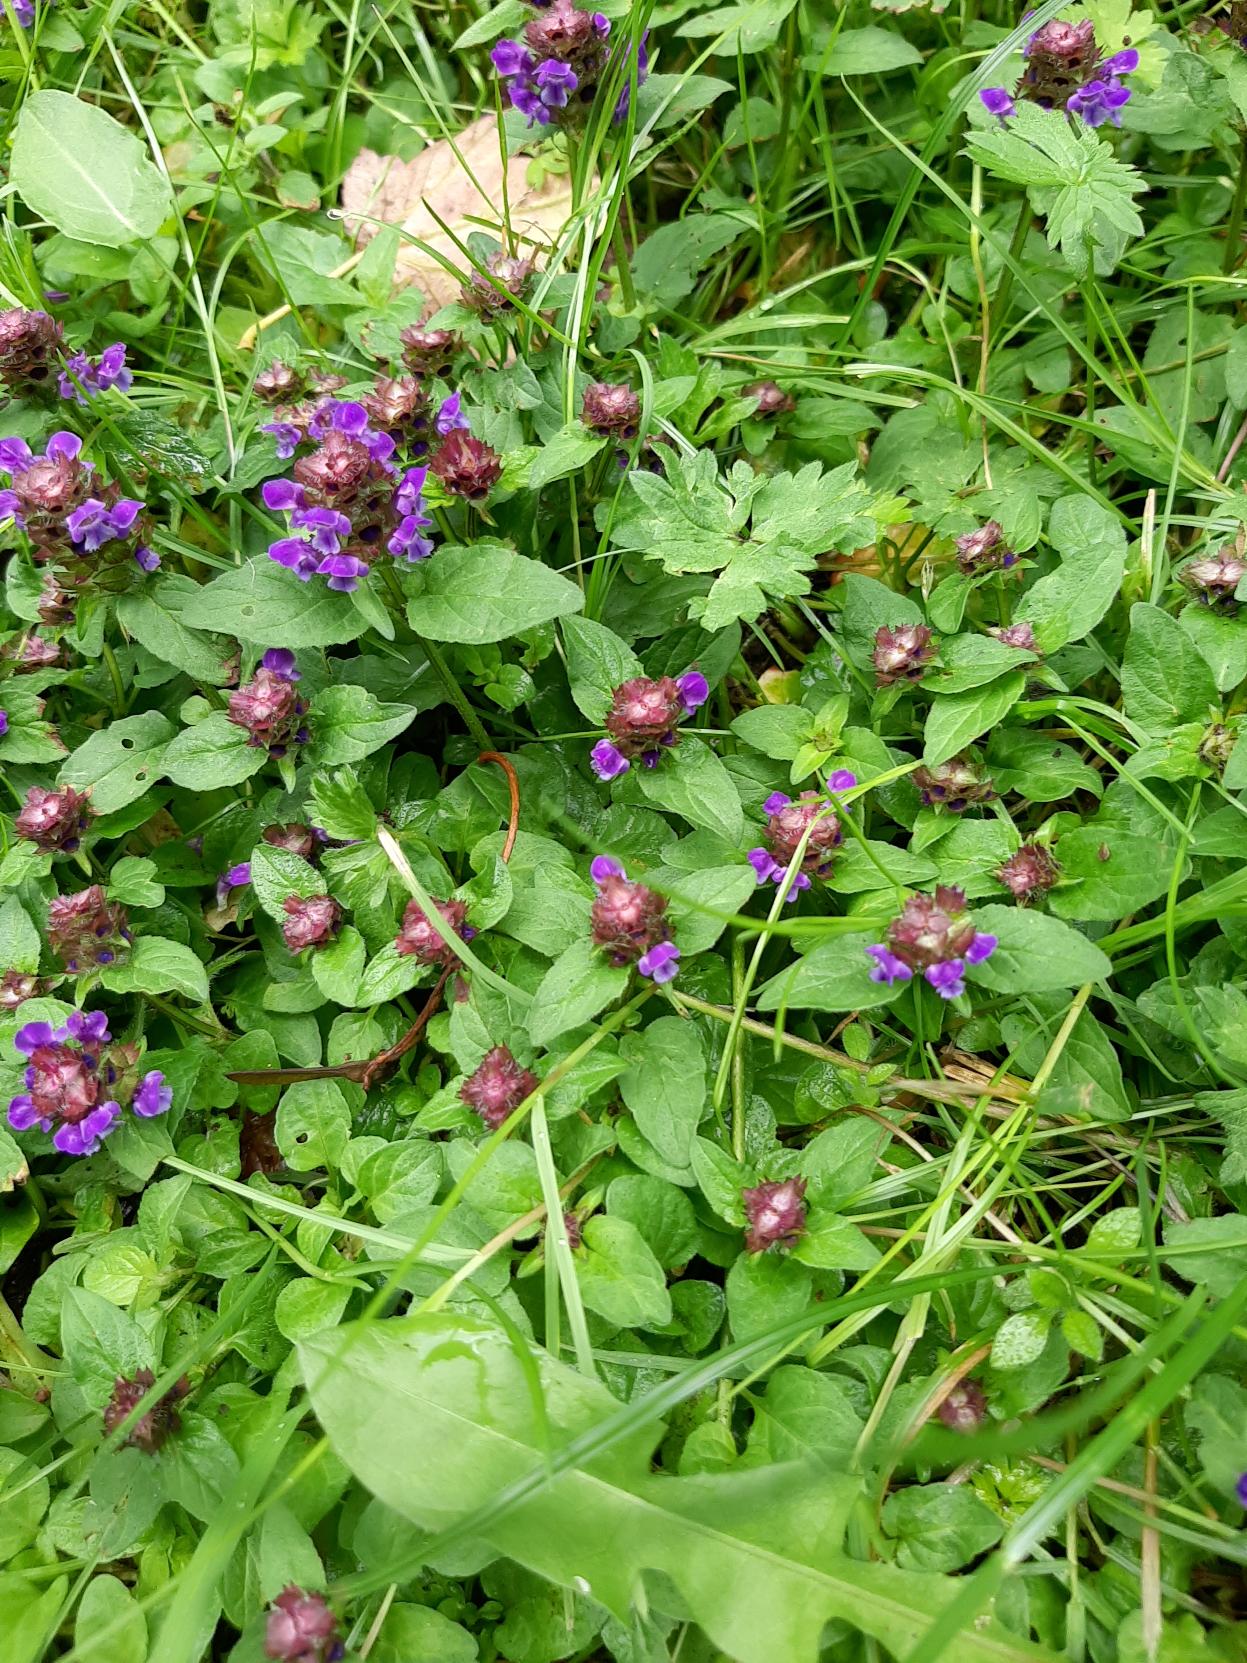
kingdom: Plantae
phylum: Tracheophyta
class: Magnoliopsida
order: Lamiales
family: Lamiaceae
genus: Prunella
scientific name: Prunella vulgaris
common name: Almindelig brunelle
